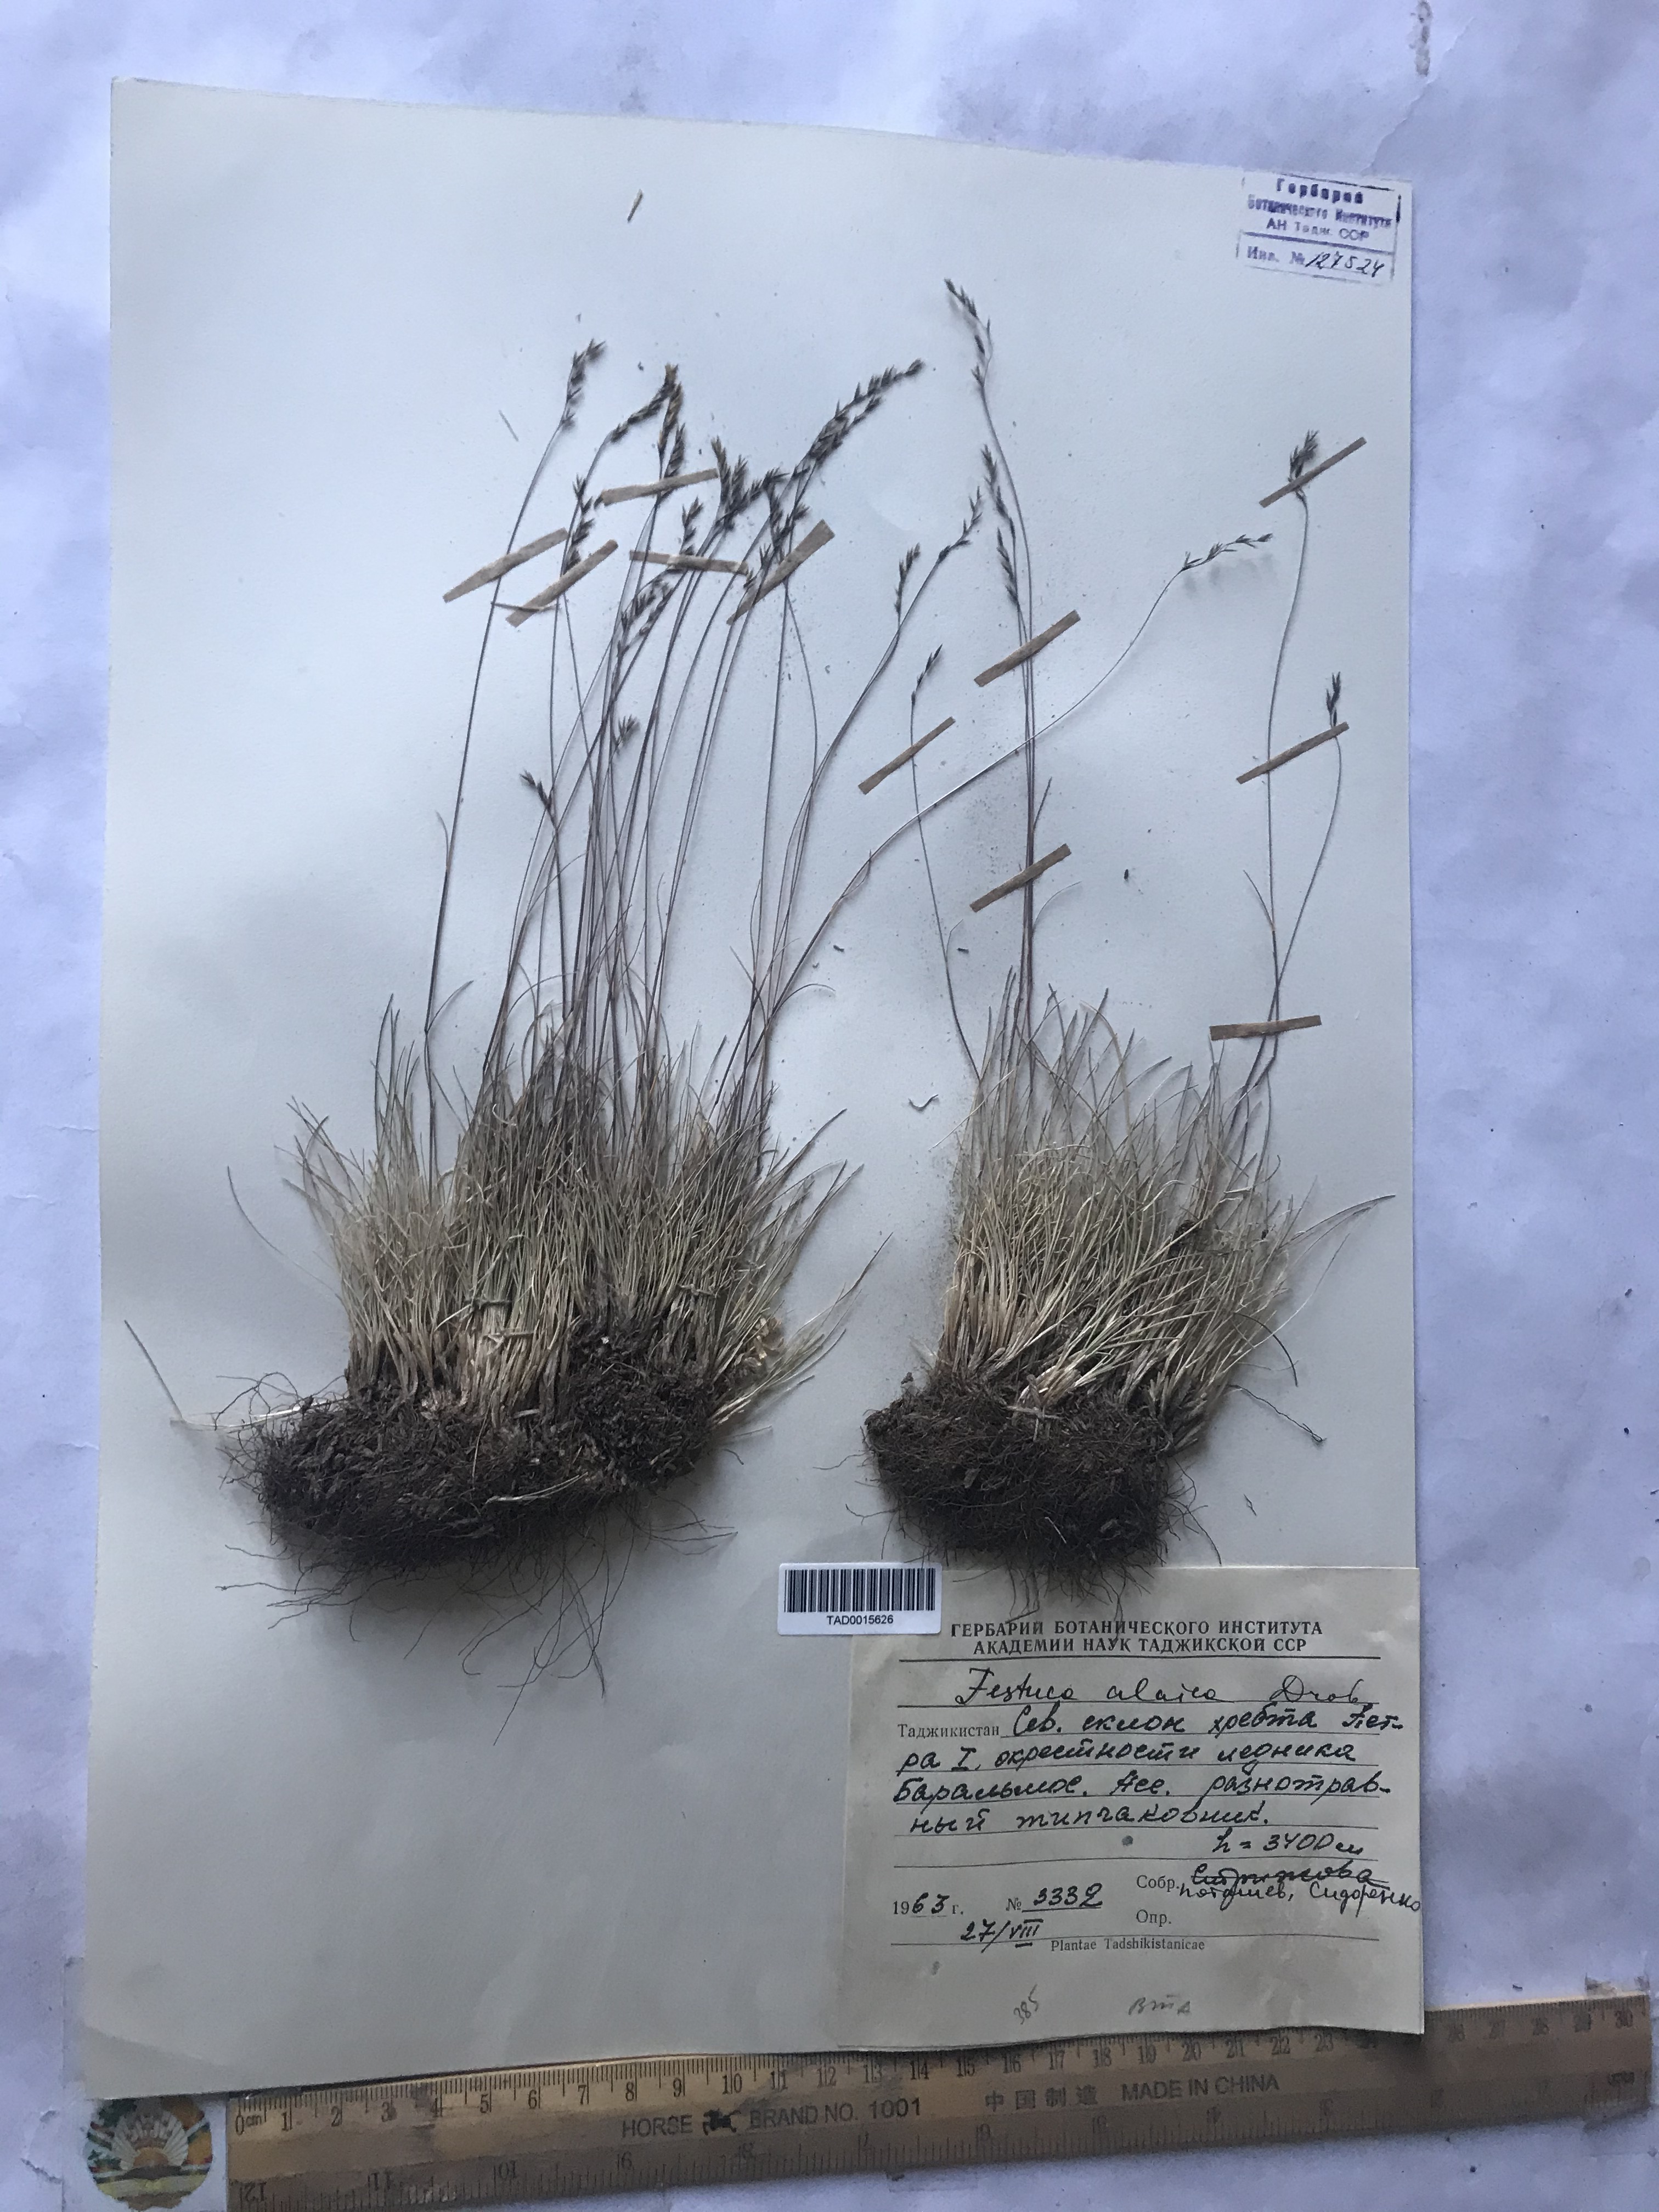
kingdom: Plantae
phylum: Tracheophyta
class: Liliopsida
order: Poales
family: Poaceae
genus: Festuca
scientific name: Festuca alaica
